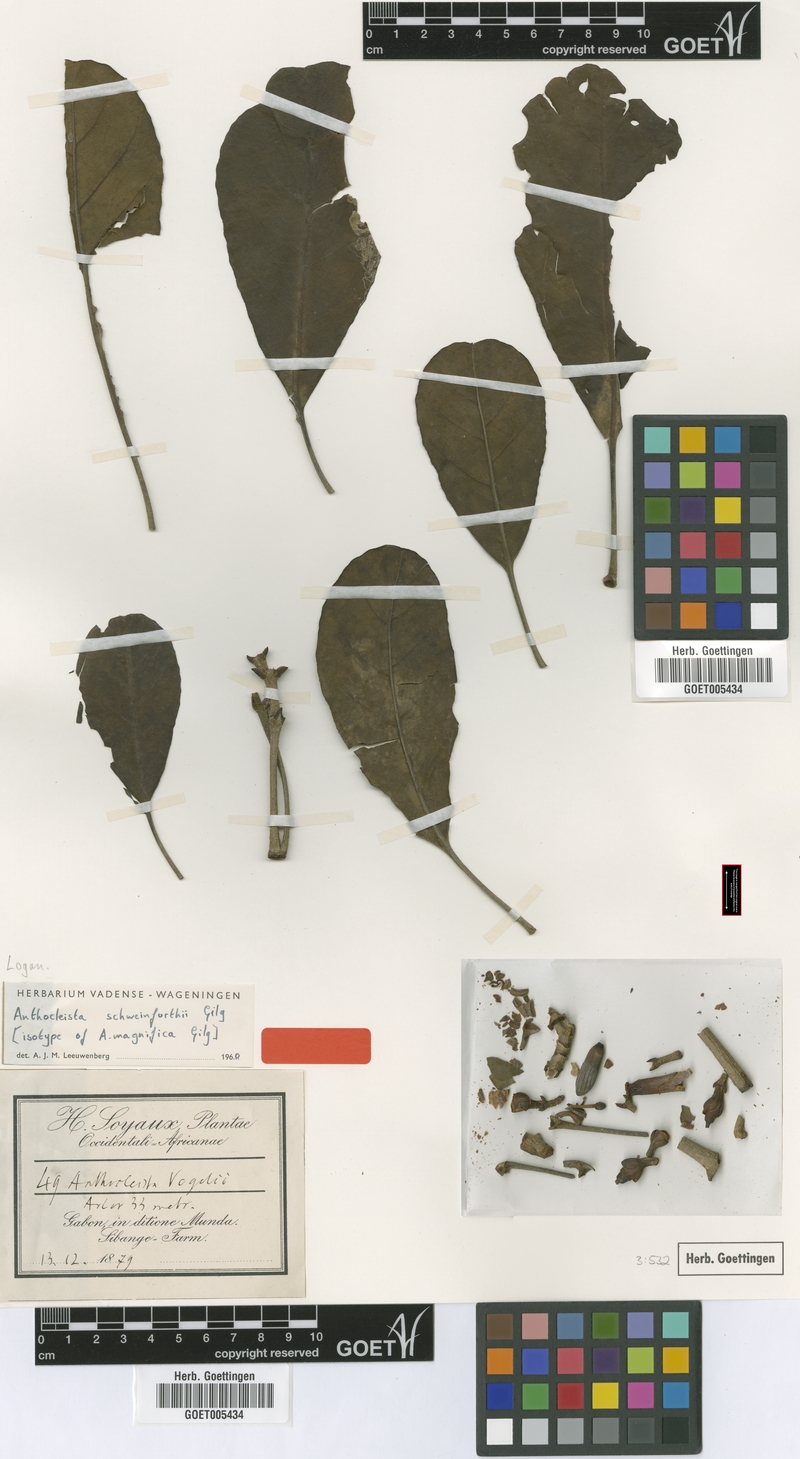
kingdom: Plantae
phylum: Tracheophyta
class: Magnoliopsida
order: Gentianales
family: Gentianaceae
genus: Anthocleista
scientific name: Anthocleista schweinfurthii
